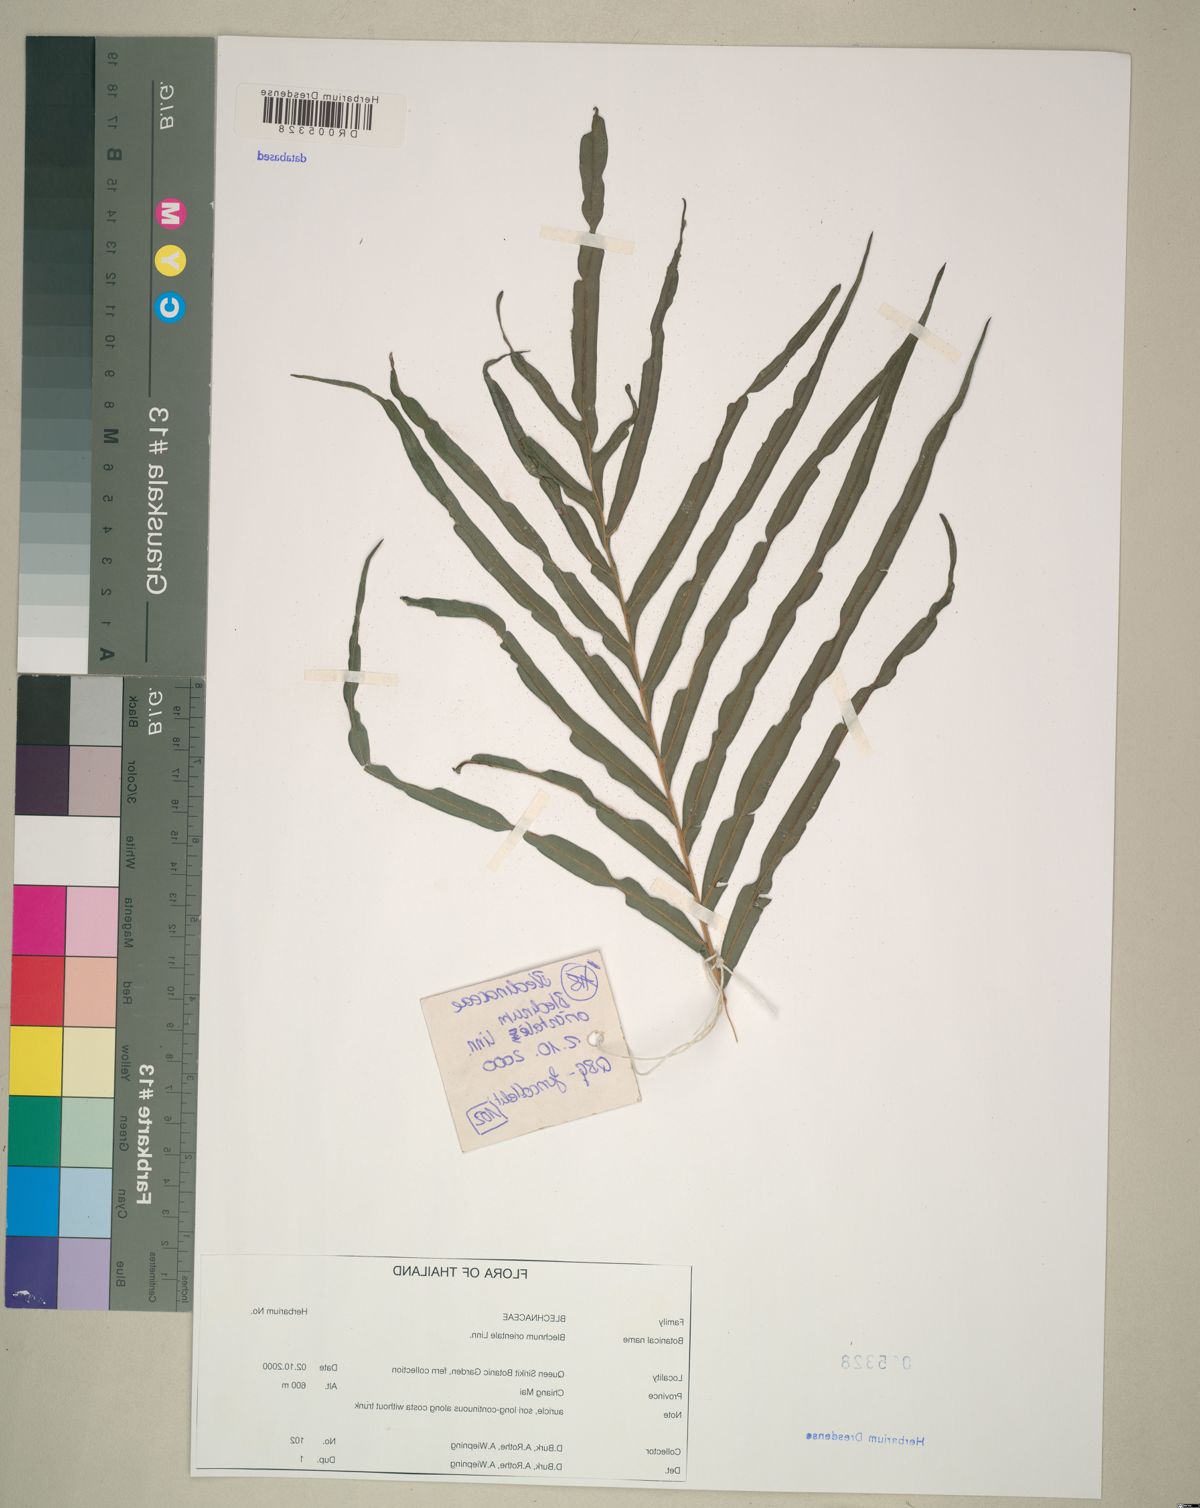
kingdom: Plantae
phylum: Tracheophyta
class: Polypodiopsida
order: Polypodiales
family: Blechnaceae
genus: Blechnopsis
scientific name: Blechnopsis orientalis
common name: Oriental blechnum
